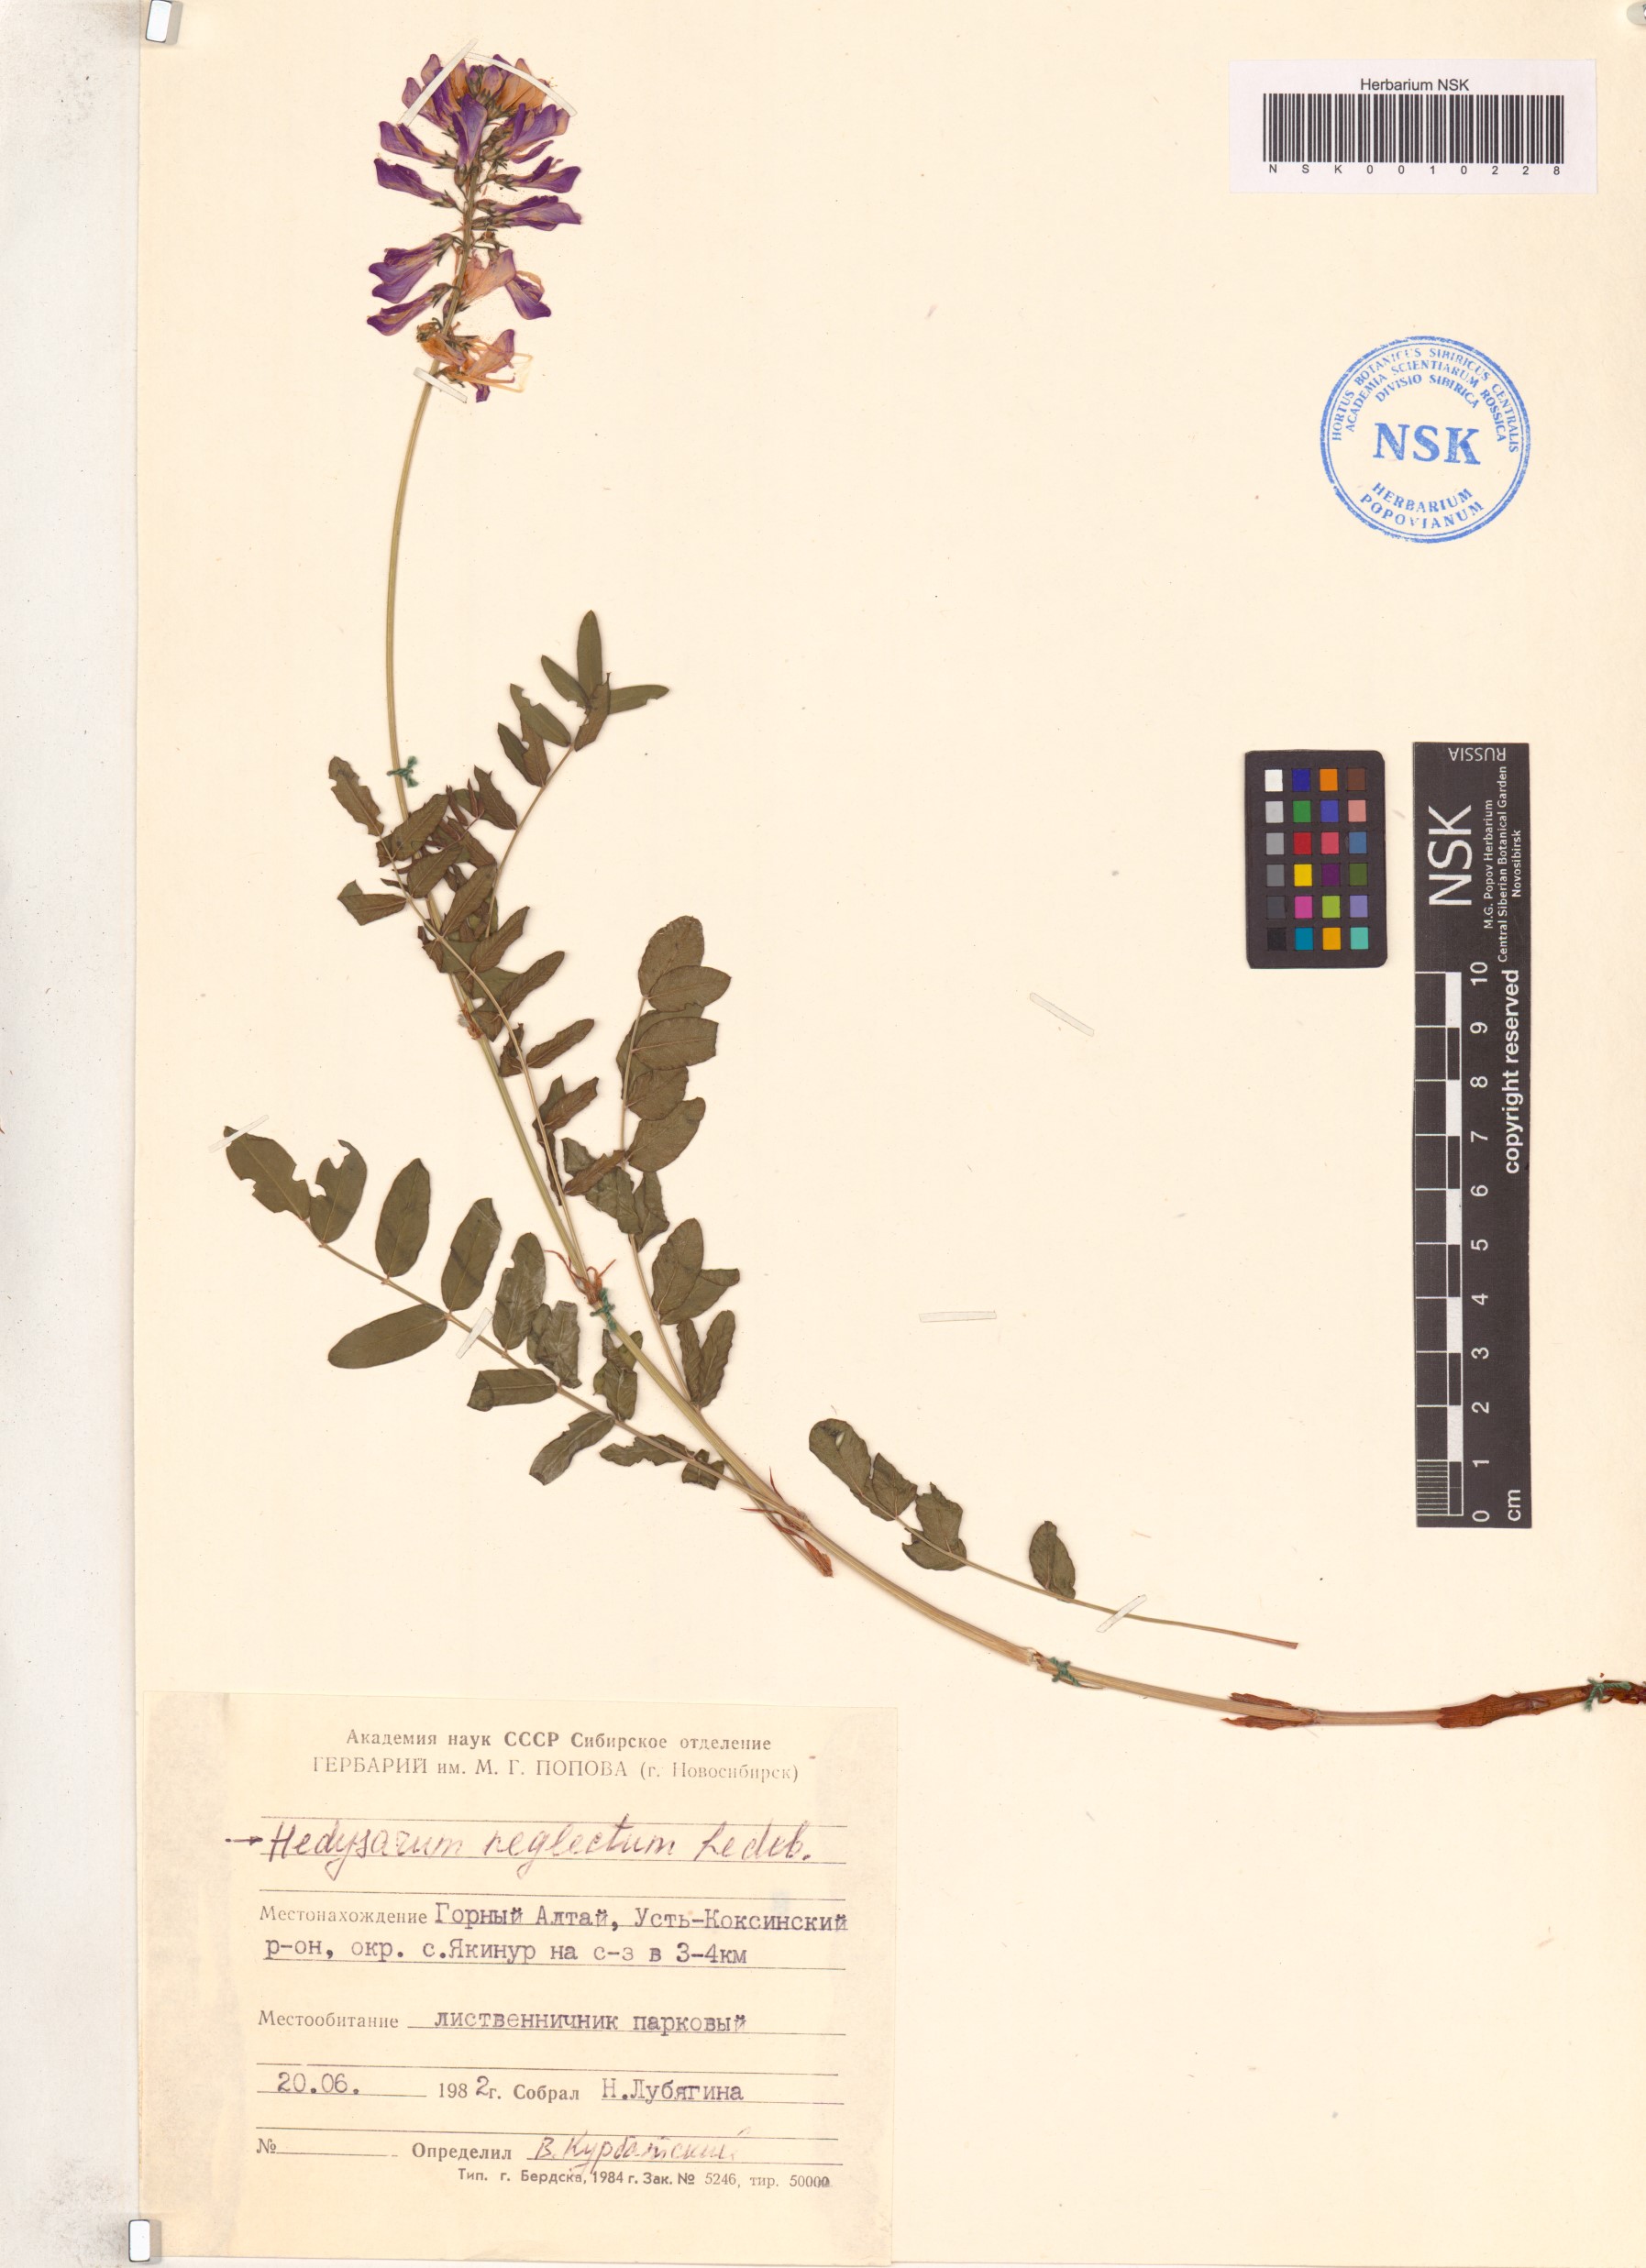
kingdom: Plantae
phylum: Tracheophyta
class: Magnoliopsida
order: Fabales
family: Fabaceae
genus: Hedysarum
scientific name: Hedysarum neglectum
